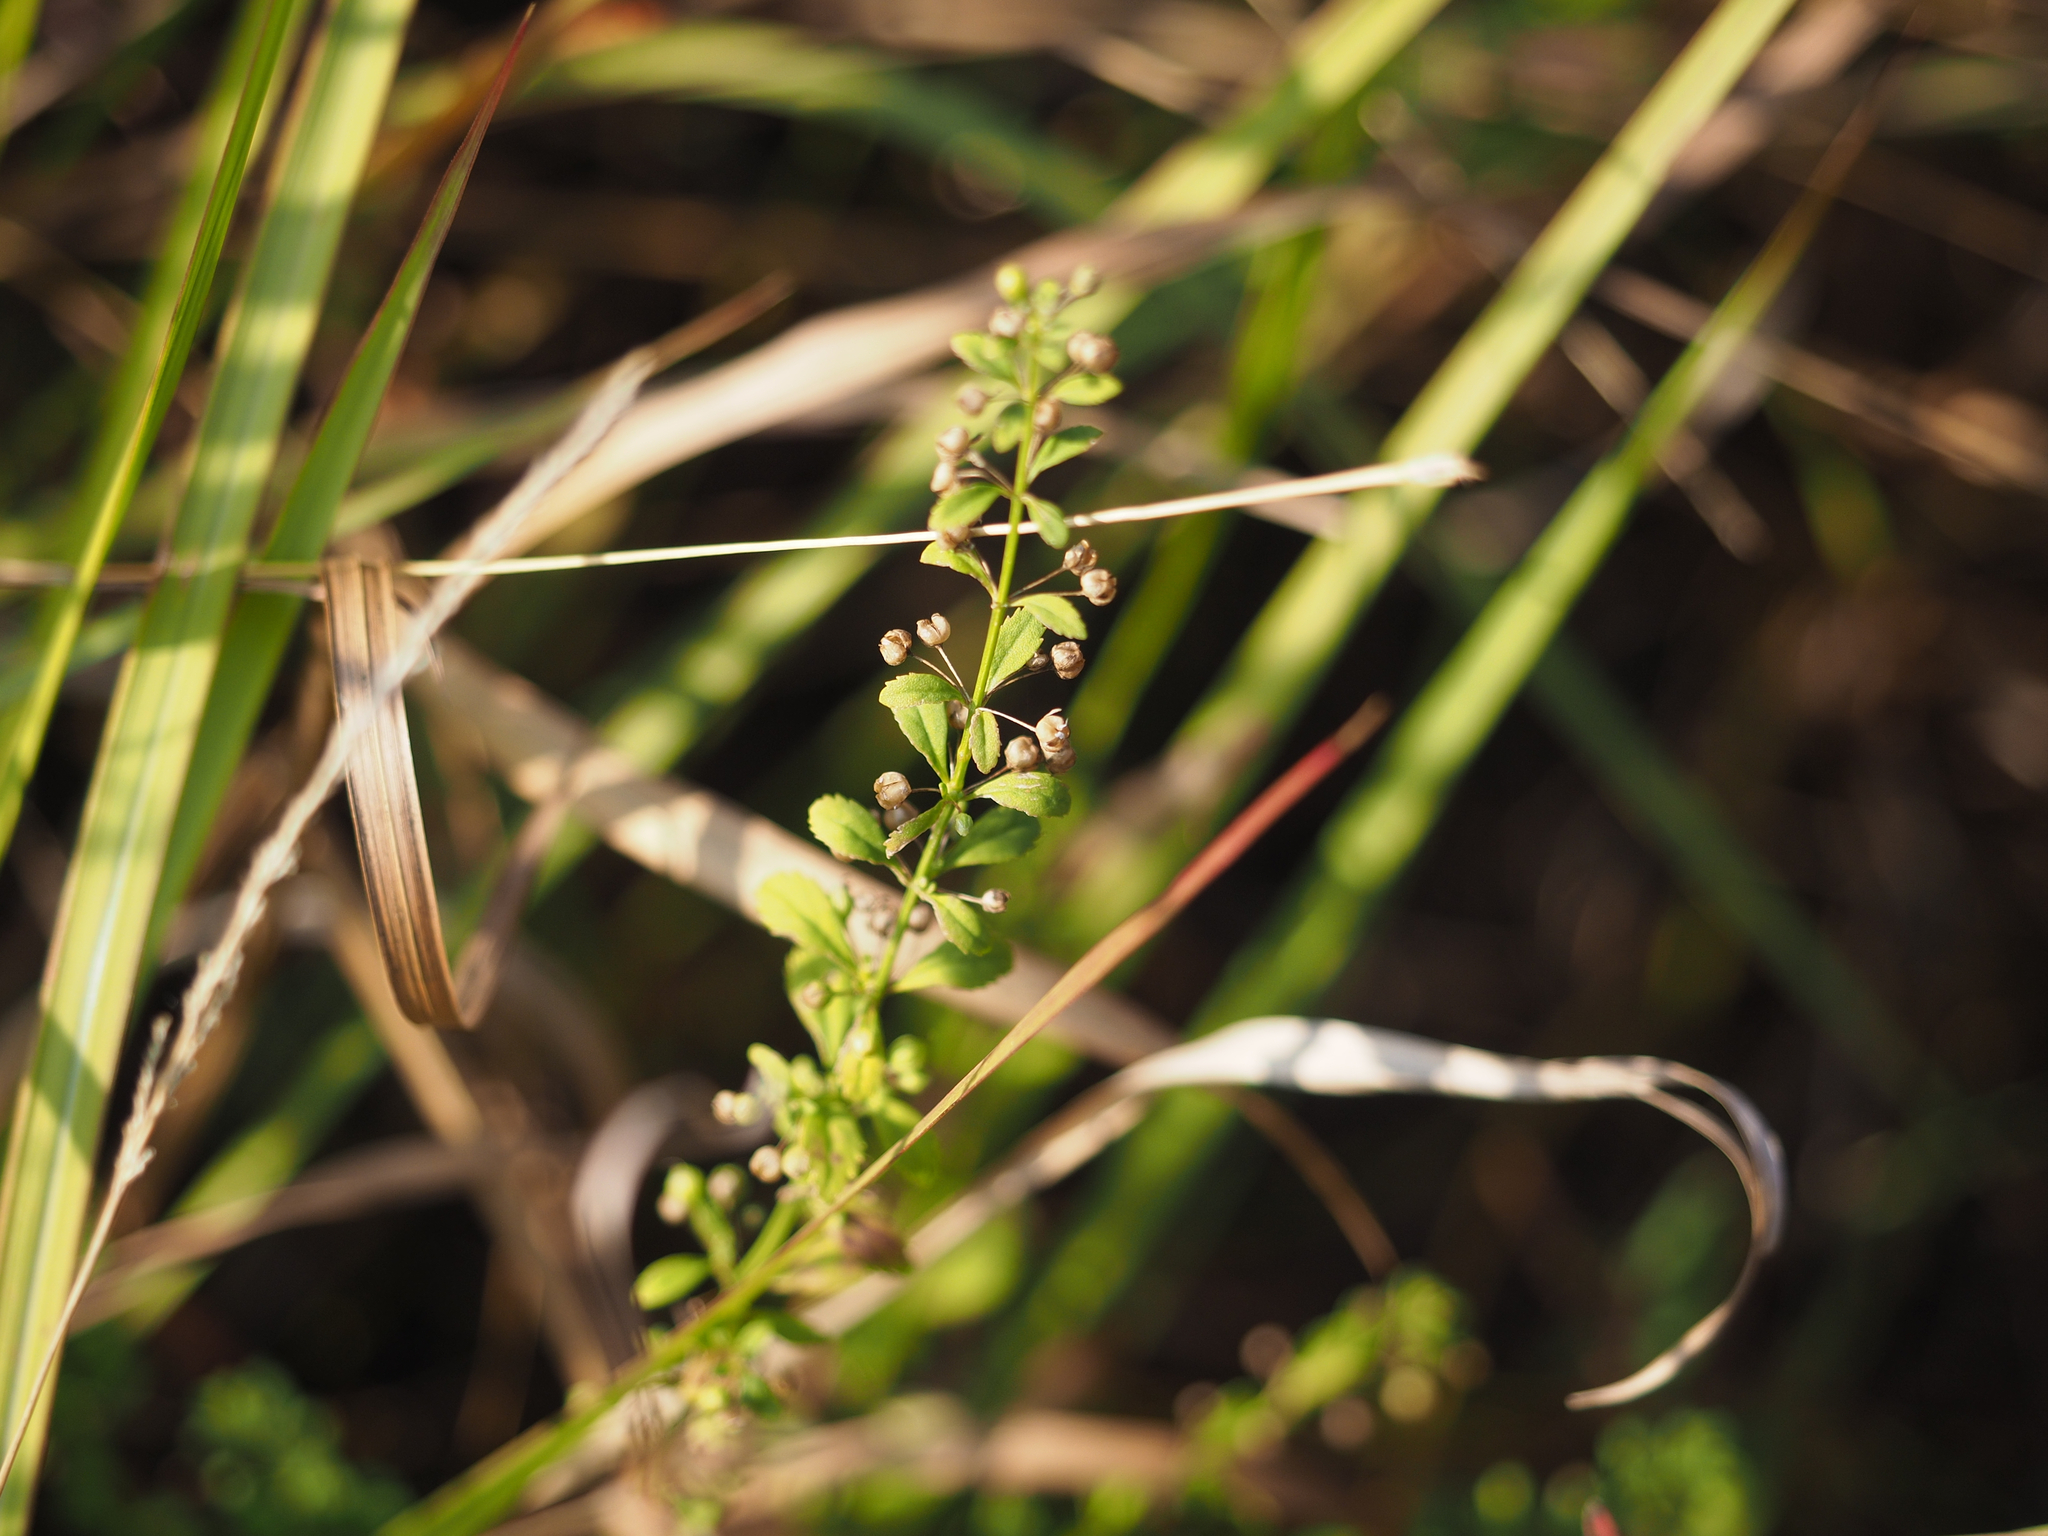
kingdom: Plantae
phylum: Tracheophyta
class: Magnoliopsida
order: Lamiales
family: Plantaginaceae
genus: Scoparia
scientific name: Scoparia dulcis
